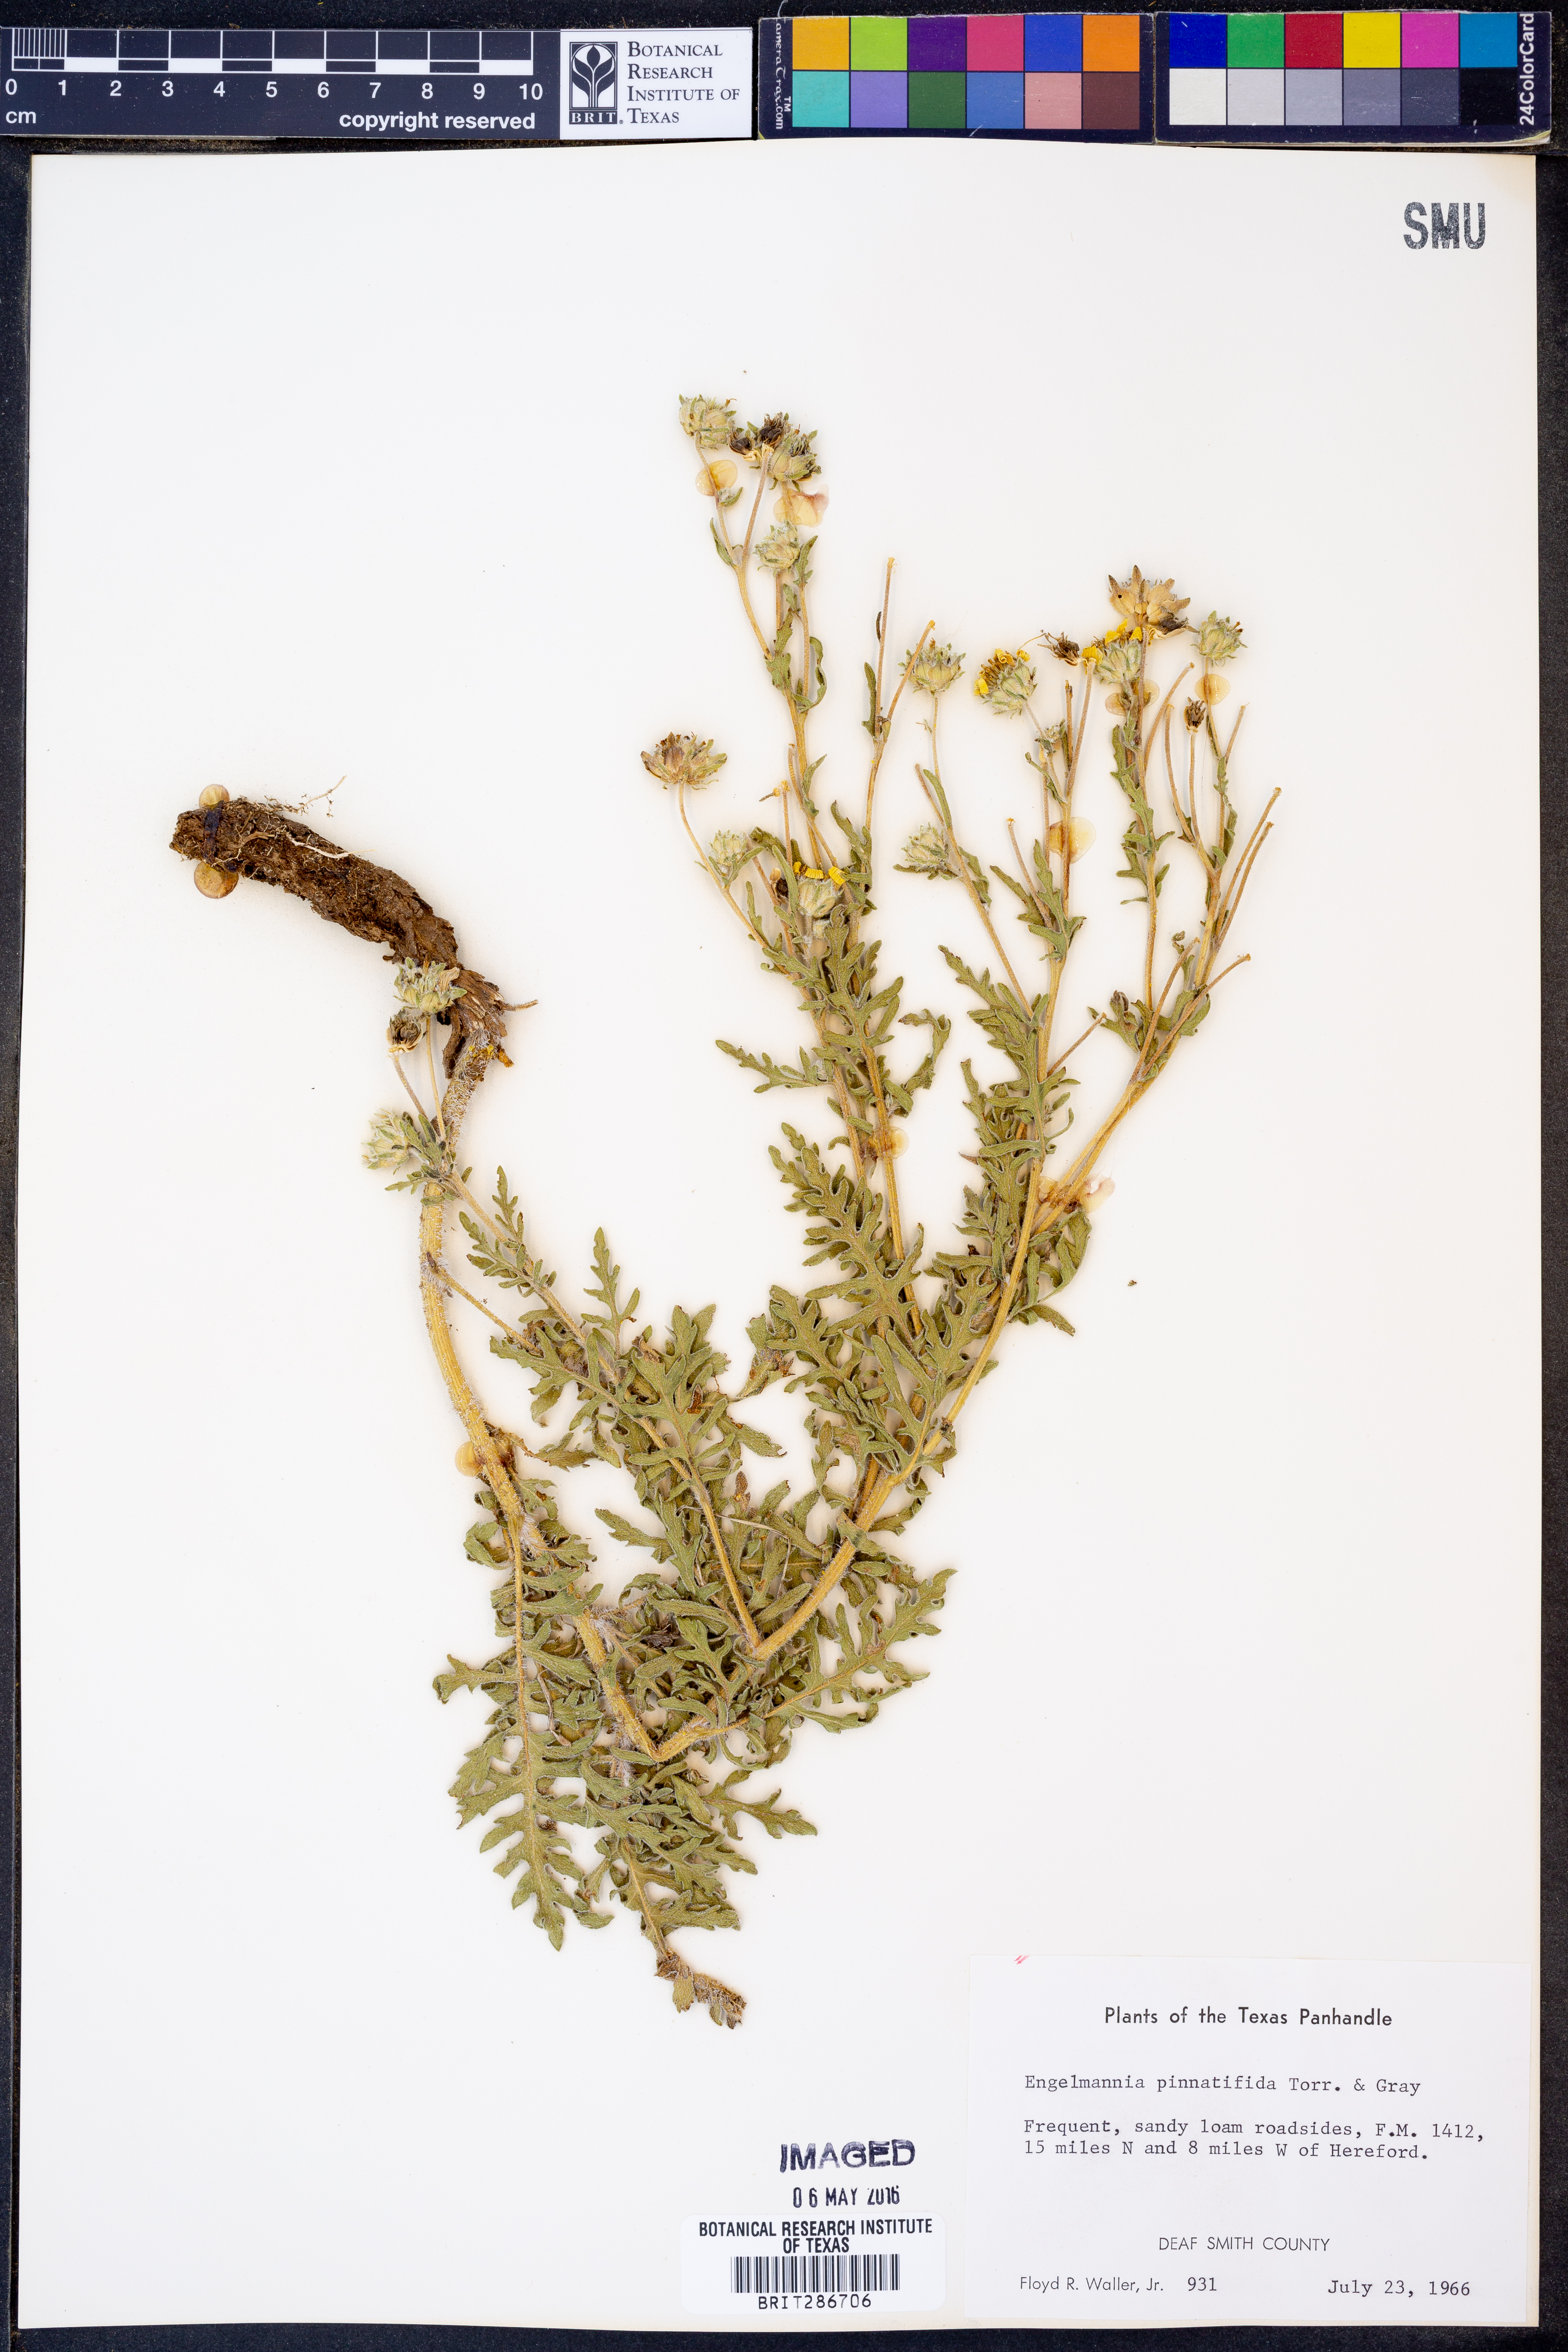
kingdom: Plantae
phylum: Tracheophyta
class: Magnoliopsida
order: Asterales
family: Asteraceae
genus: Engelmannia
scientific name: Engelmannia peristenia
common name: Engelmann's daisy
